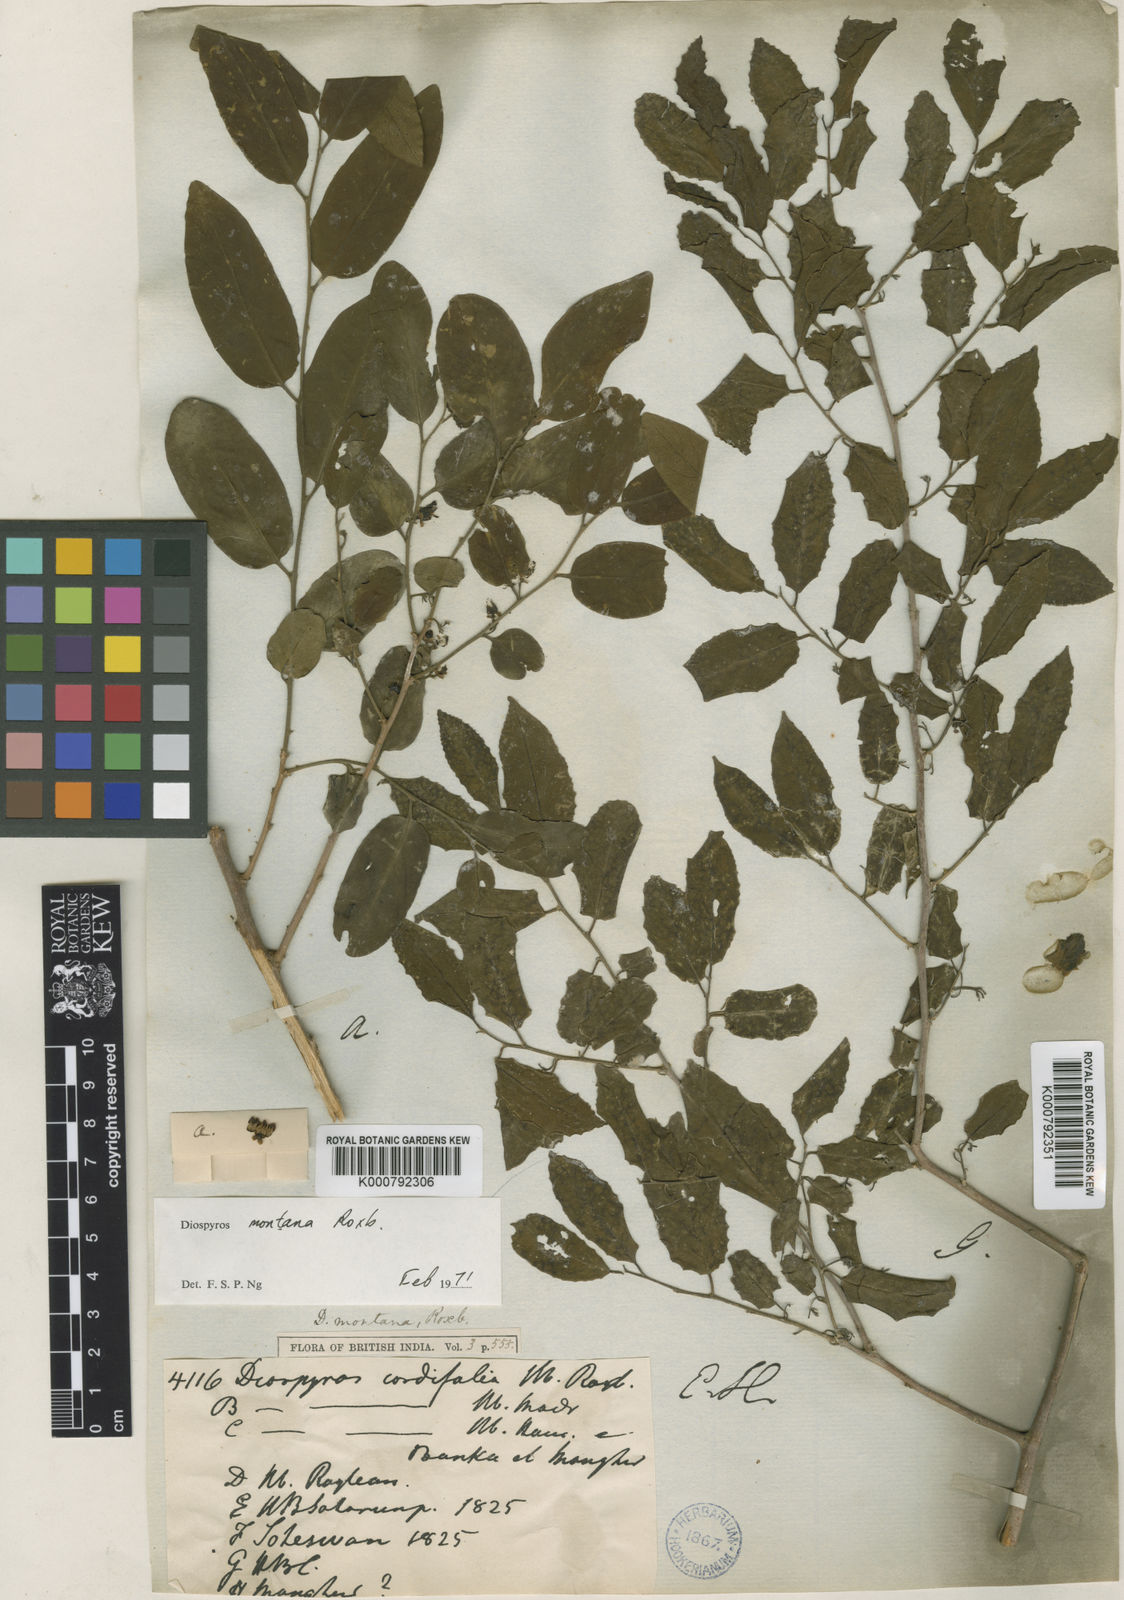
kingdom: Plantae
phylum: Tracheophyta
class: Magnoliopsida
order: Ericales
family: Ebenaceae
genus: Diospyros
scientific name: Diospyros montana
